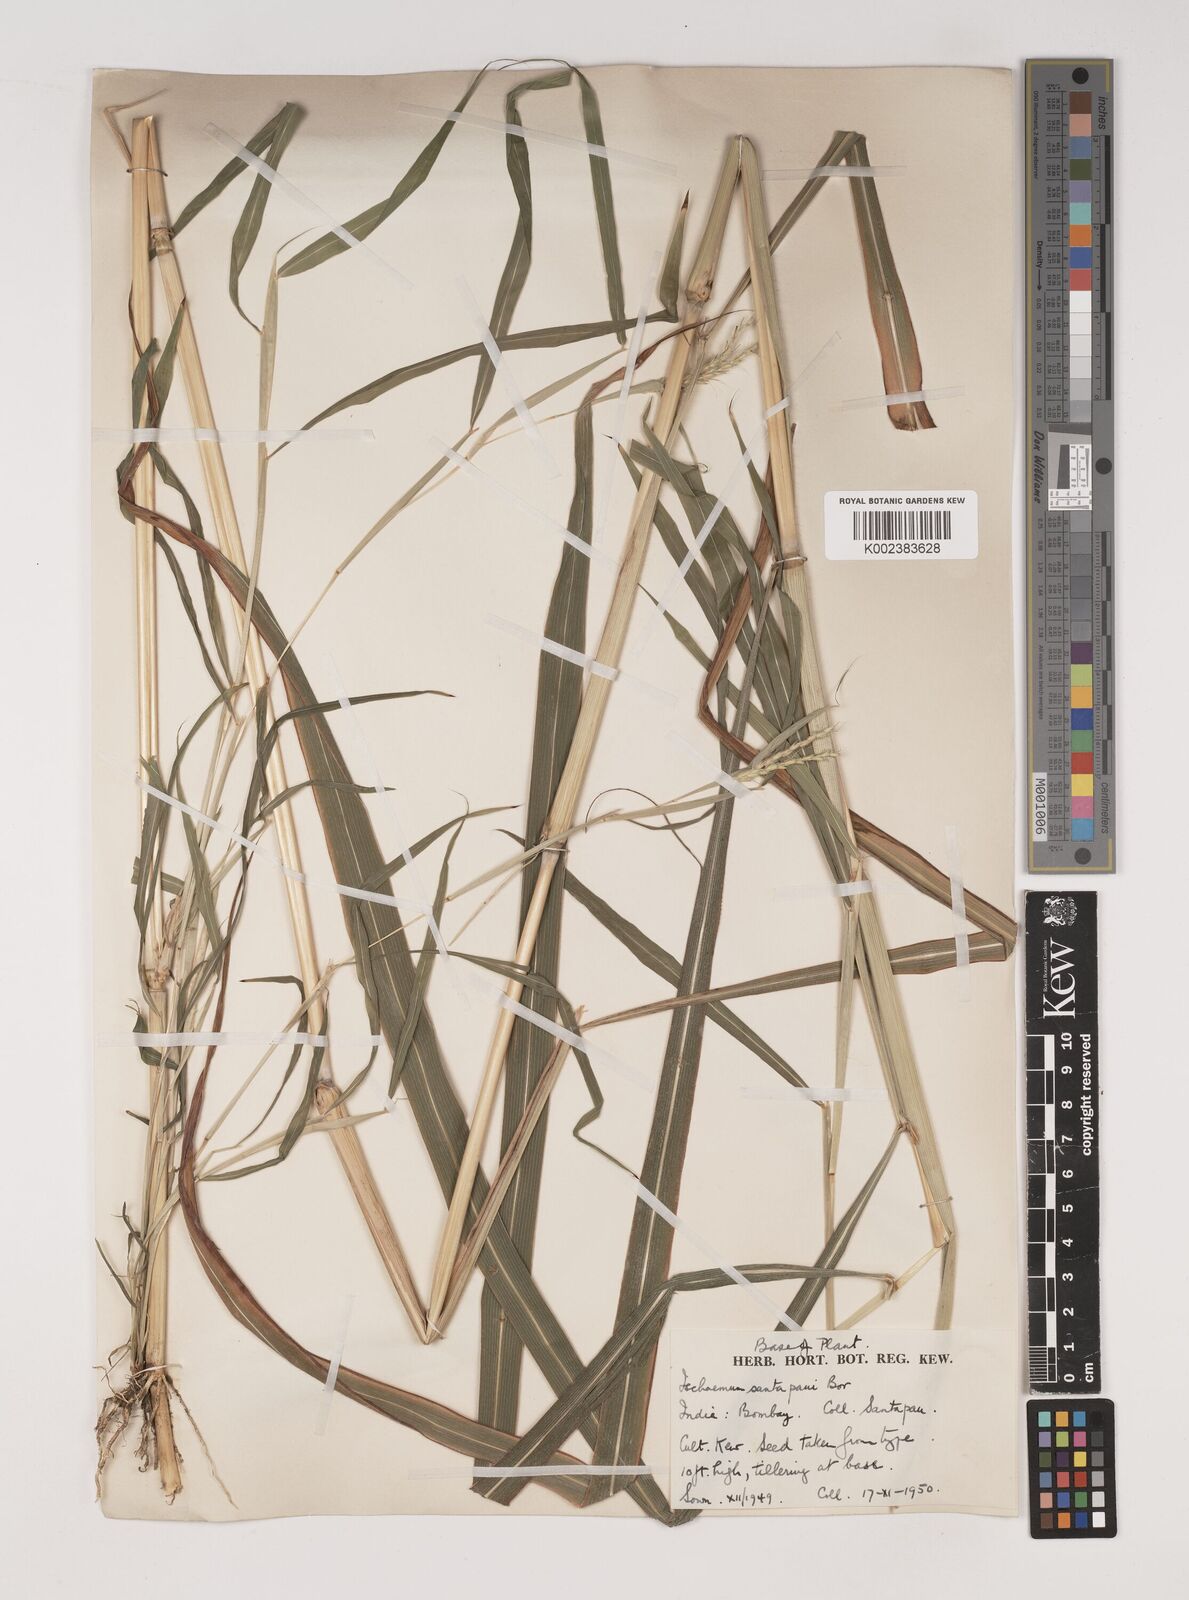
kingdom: Plantae
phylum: Tracheophyta
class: Liliopsida
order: Poales
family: Poaceae
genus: Ischaemum
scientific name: Ischaemum santapaui
